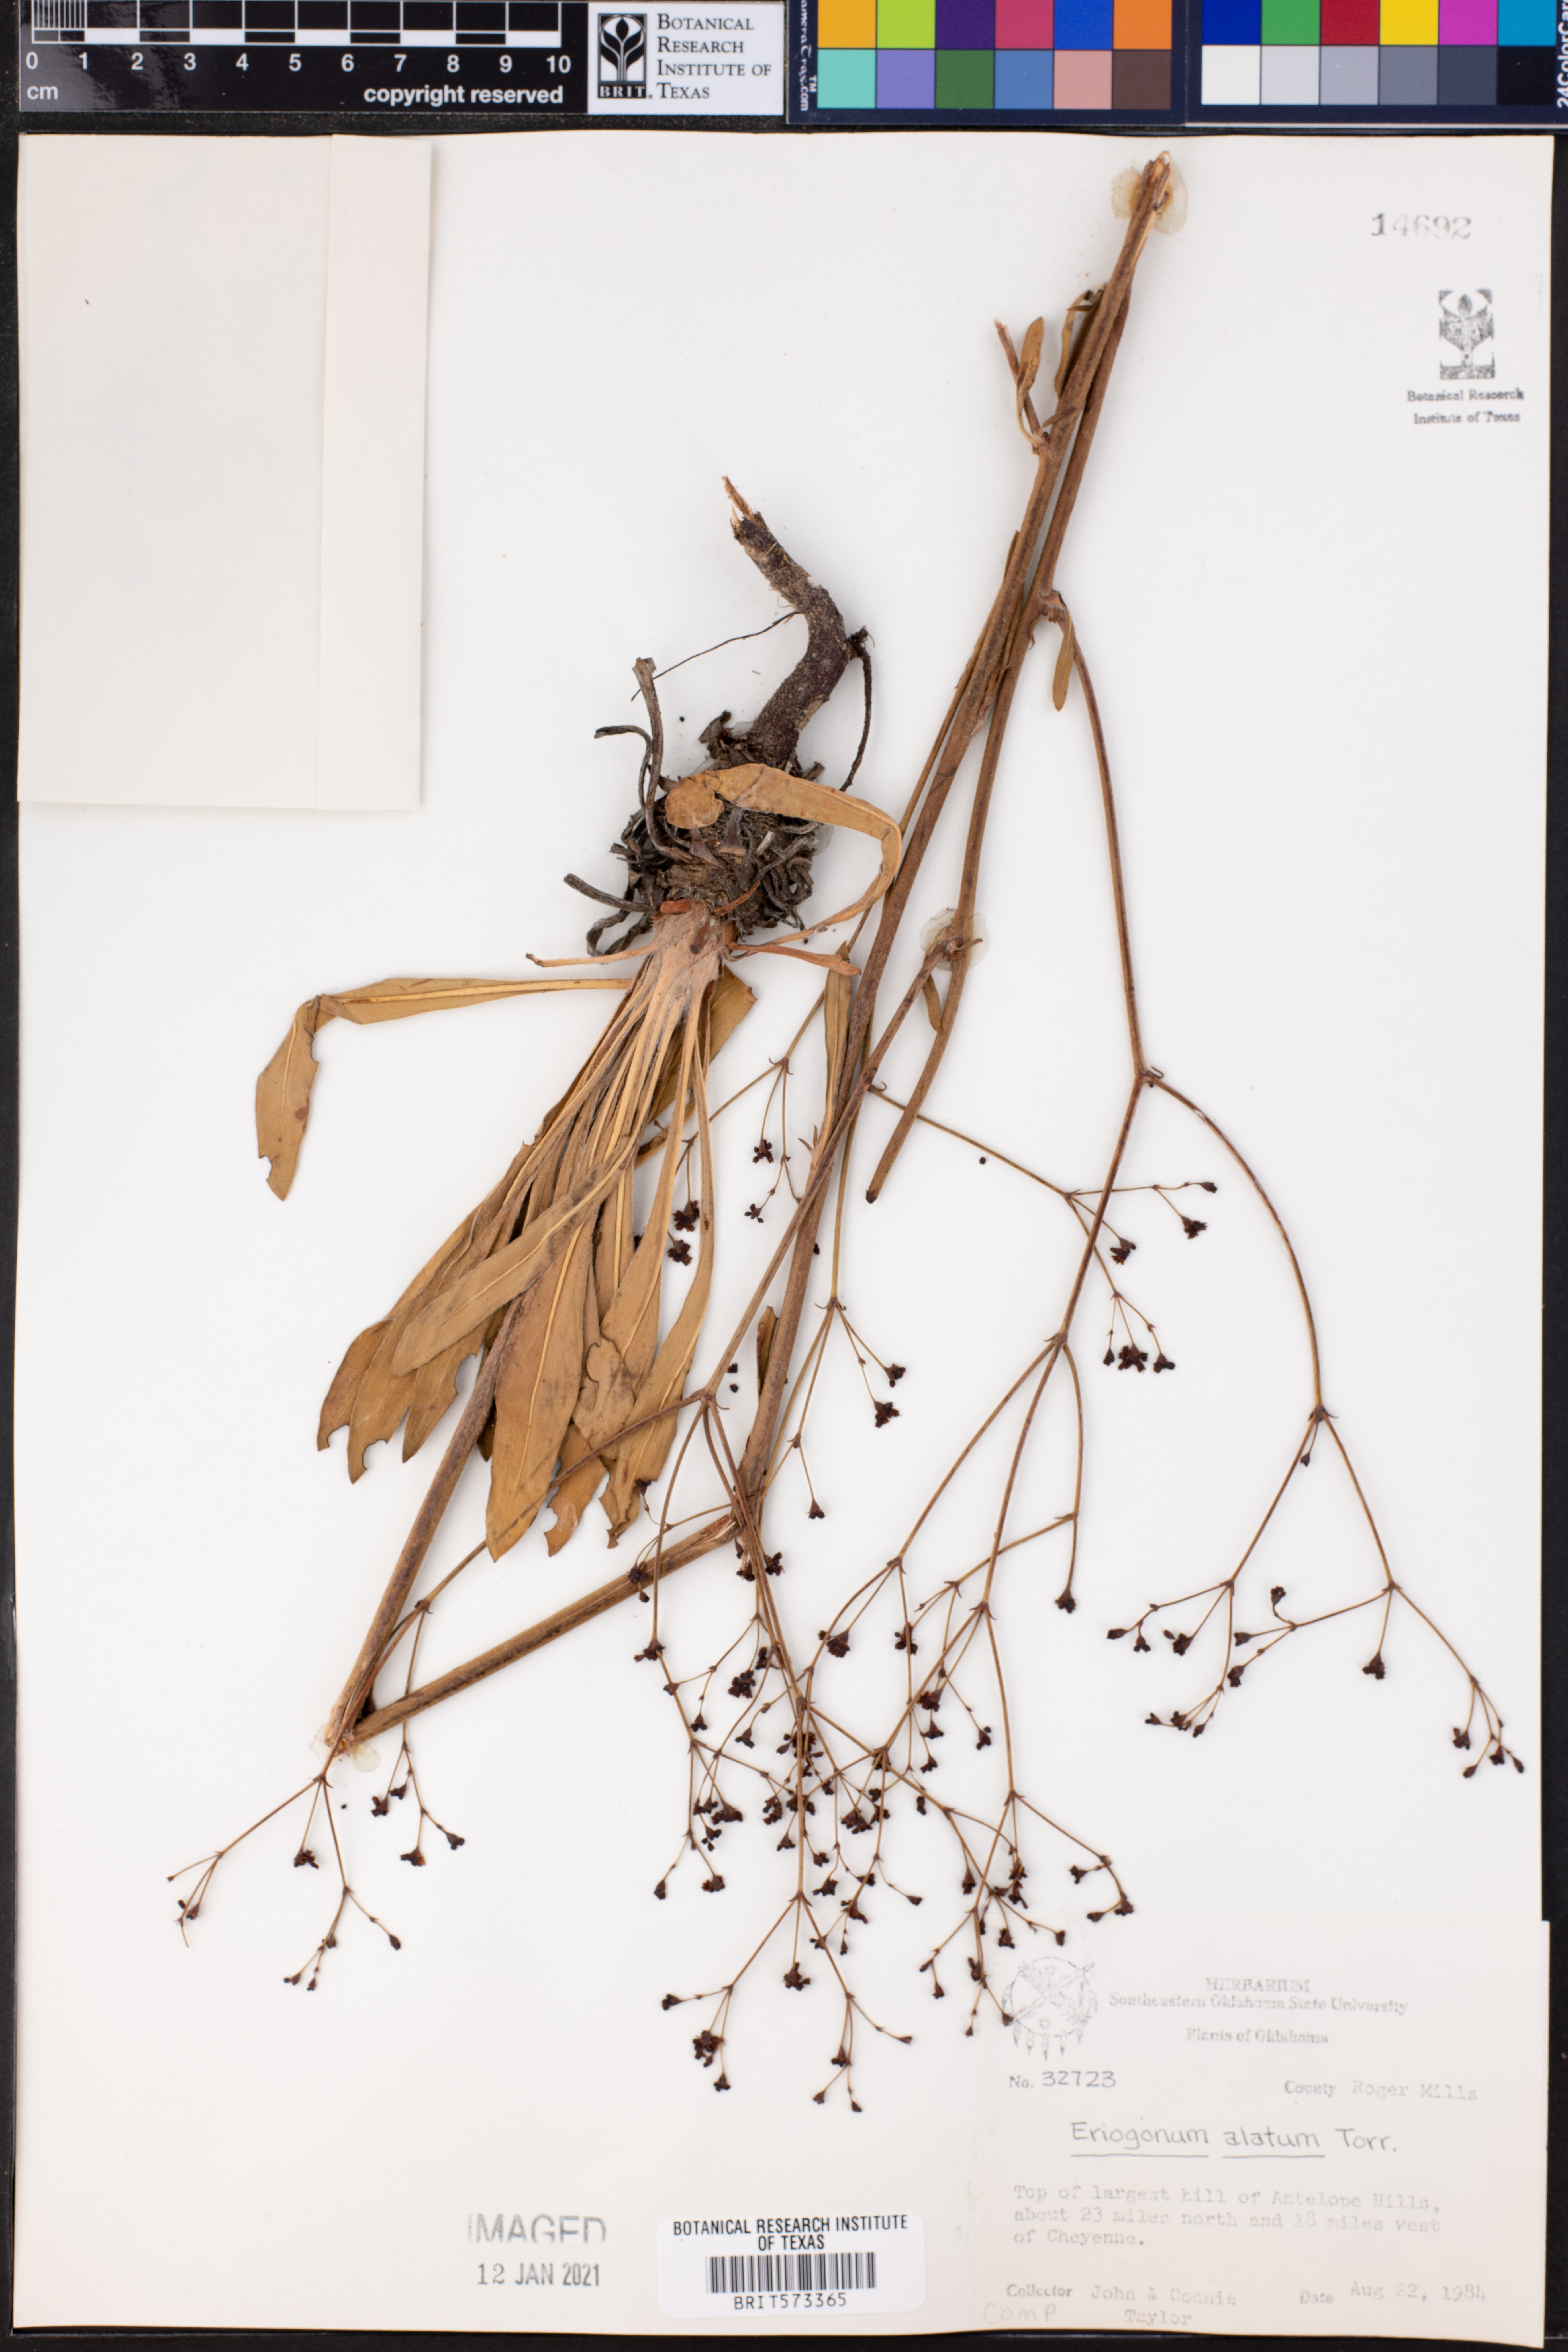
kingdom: Plantae
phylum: Tracheophyta
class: Magnoliopsida
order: Caryophyllales
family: Polygonaceae
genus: Eriogonum
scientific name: Eriogonum alatum
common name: Winged eriogonum
